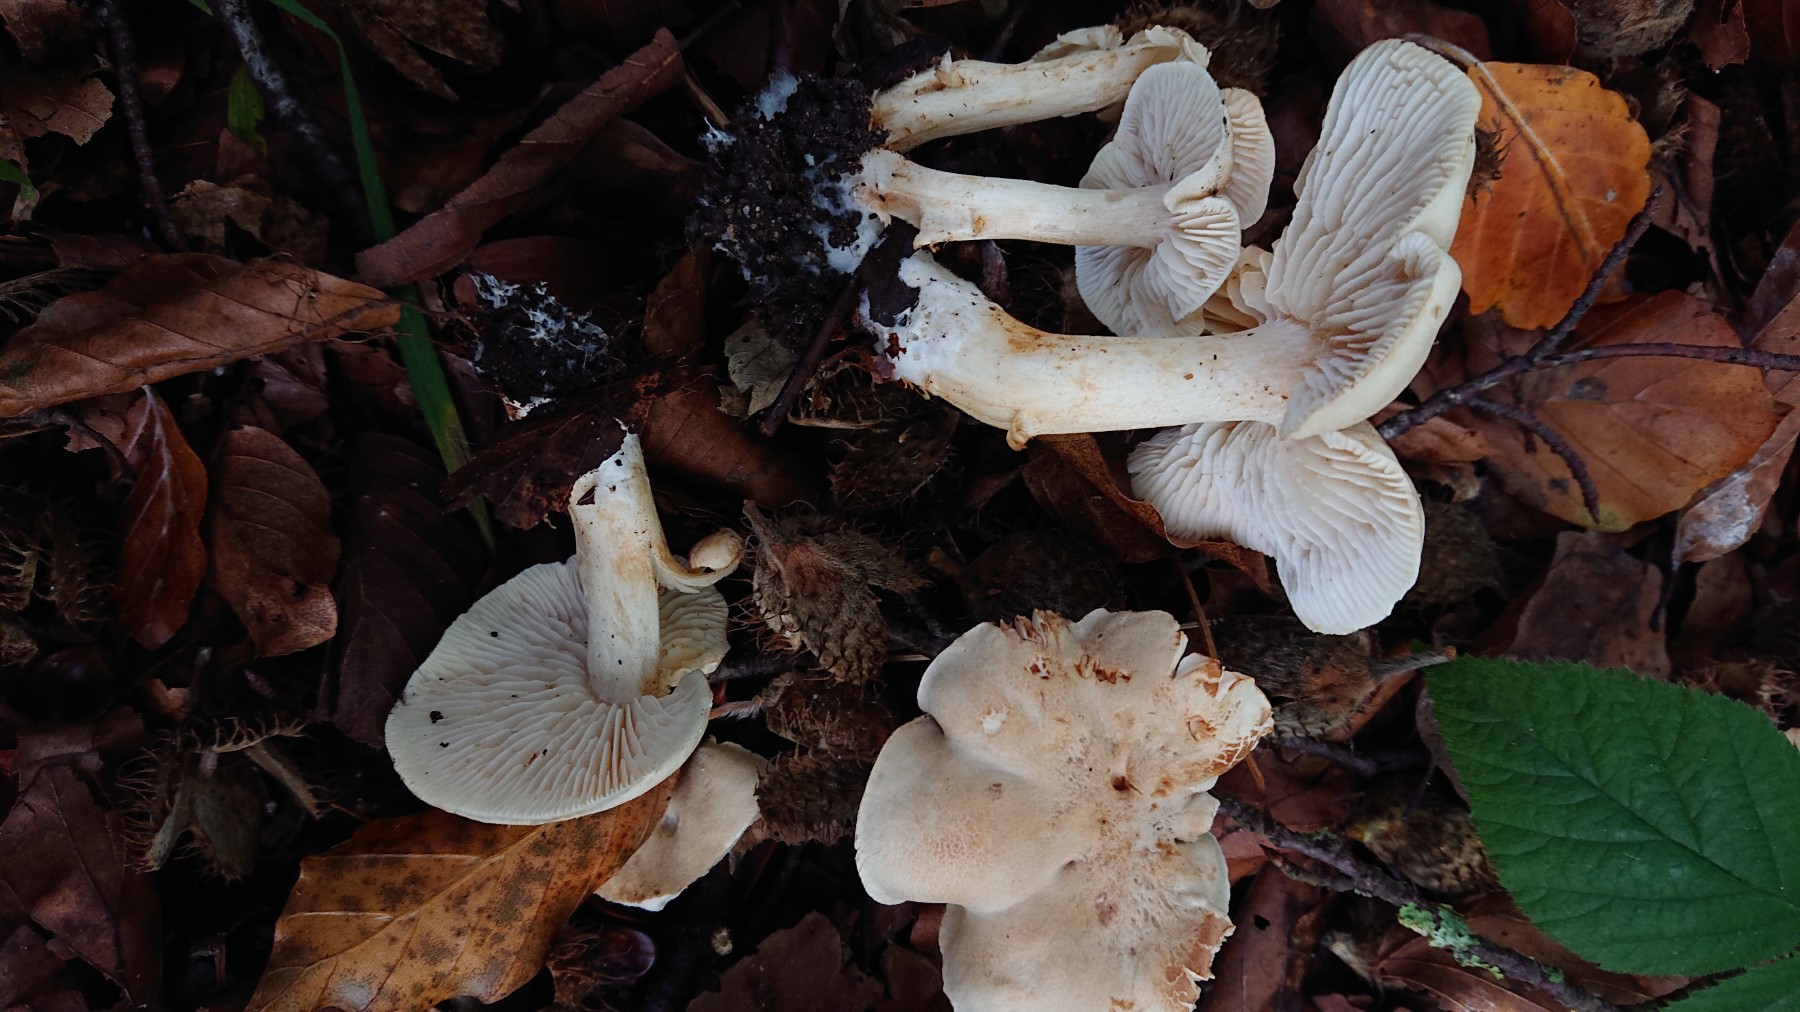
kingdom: Fungi
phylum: Basidiomycota
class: Agaricomycetes
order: Agaricales
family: Tricholomataceae
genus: Tricholoma
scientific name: Tricholoma lascivum
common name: stinkende ridderhat
